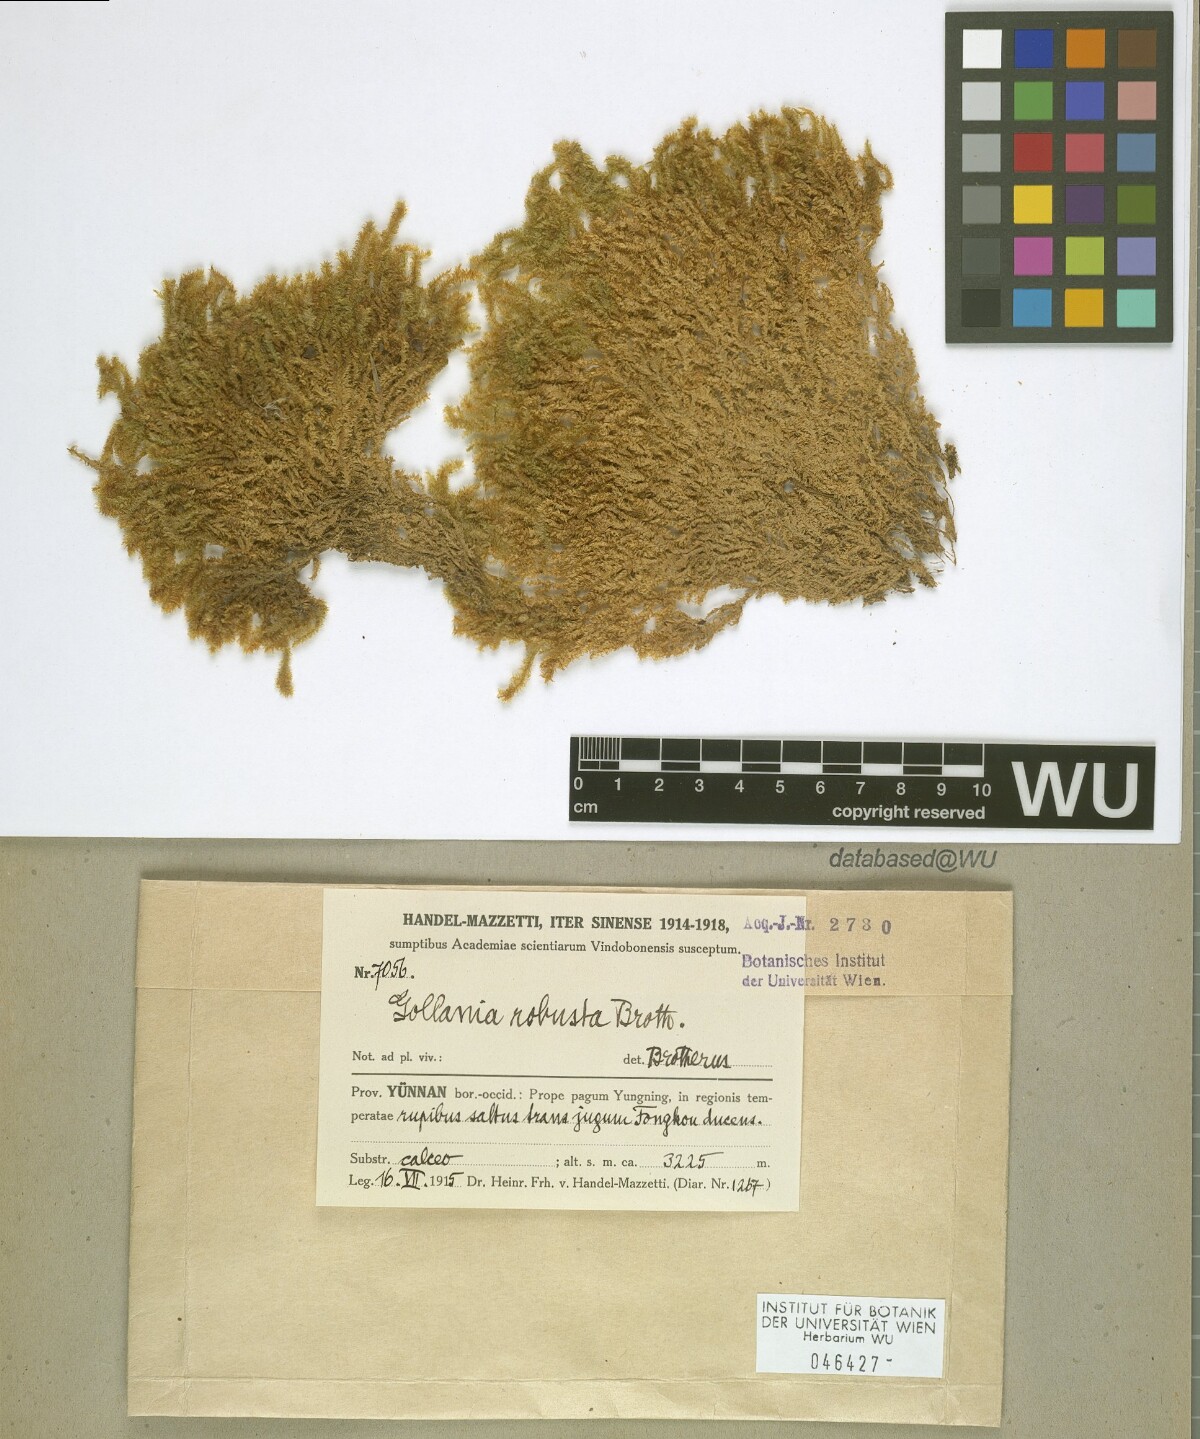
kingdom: Plantae
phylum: Bryophyta
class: Bryopsida
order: Hypnales
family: Hypnaceae
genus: Gollania
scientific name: Gollania robusta
